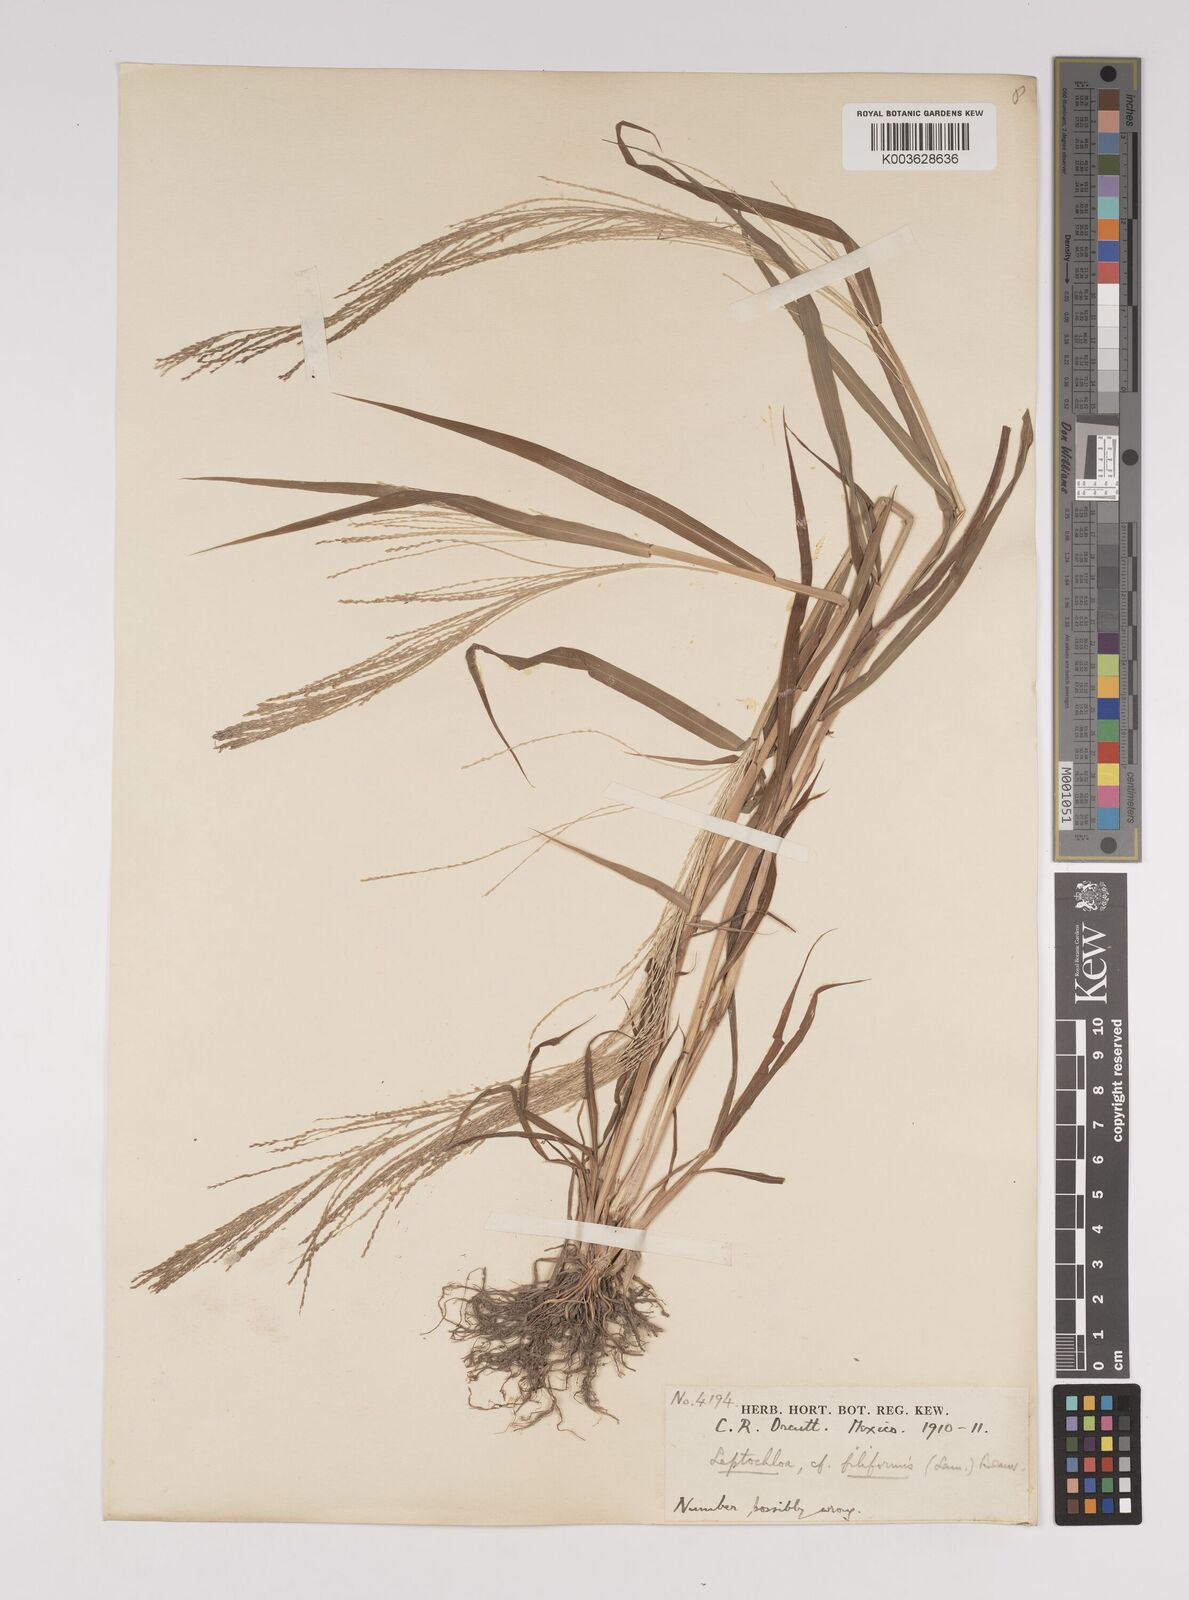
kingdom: Plantae
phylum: Tracheophyta
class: Liliopsida
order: Poales
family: Poaceae
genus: Leptochloa
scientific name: Leptochloa panicea
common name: Mucronate sprangletop
